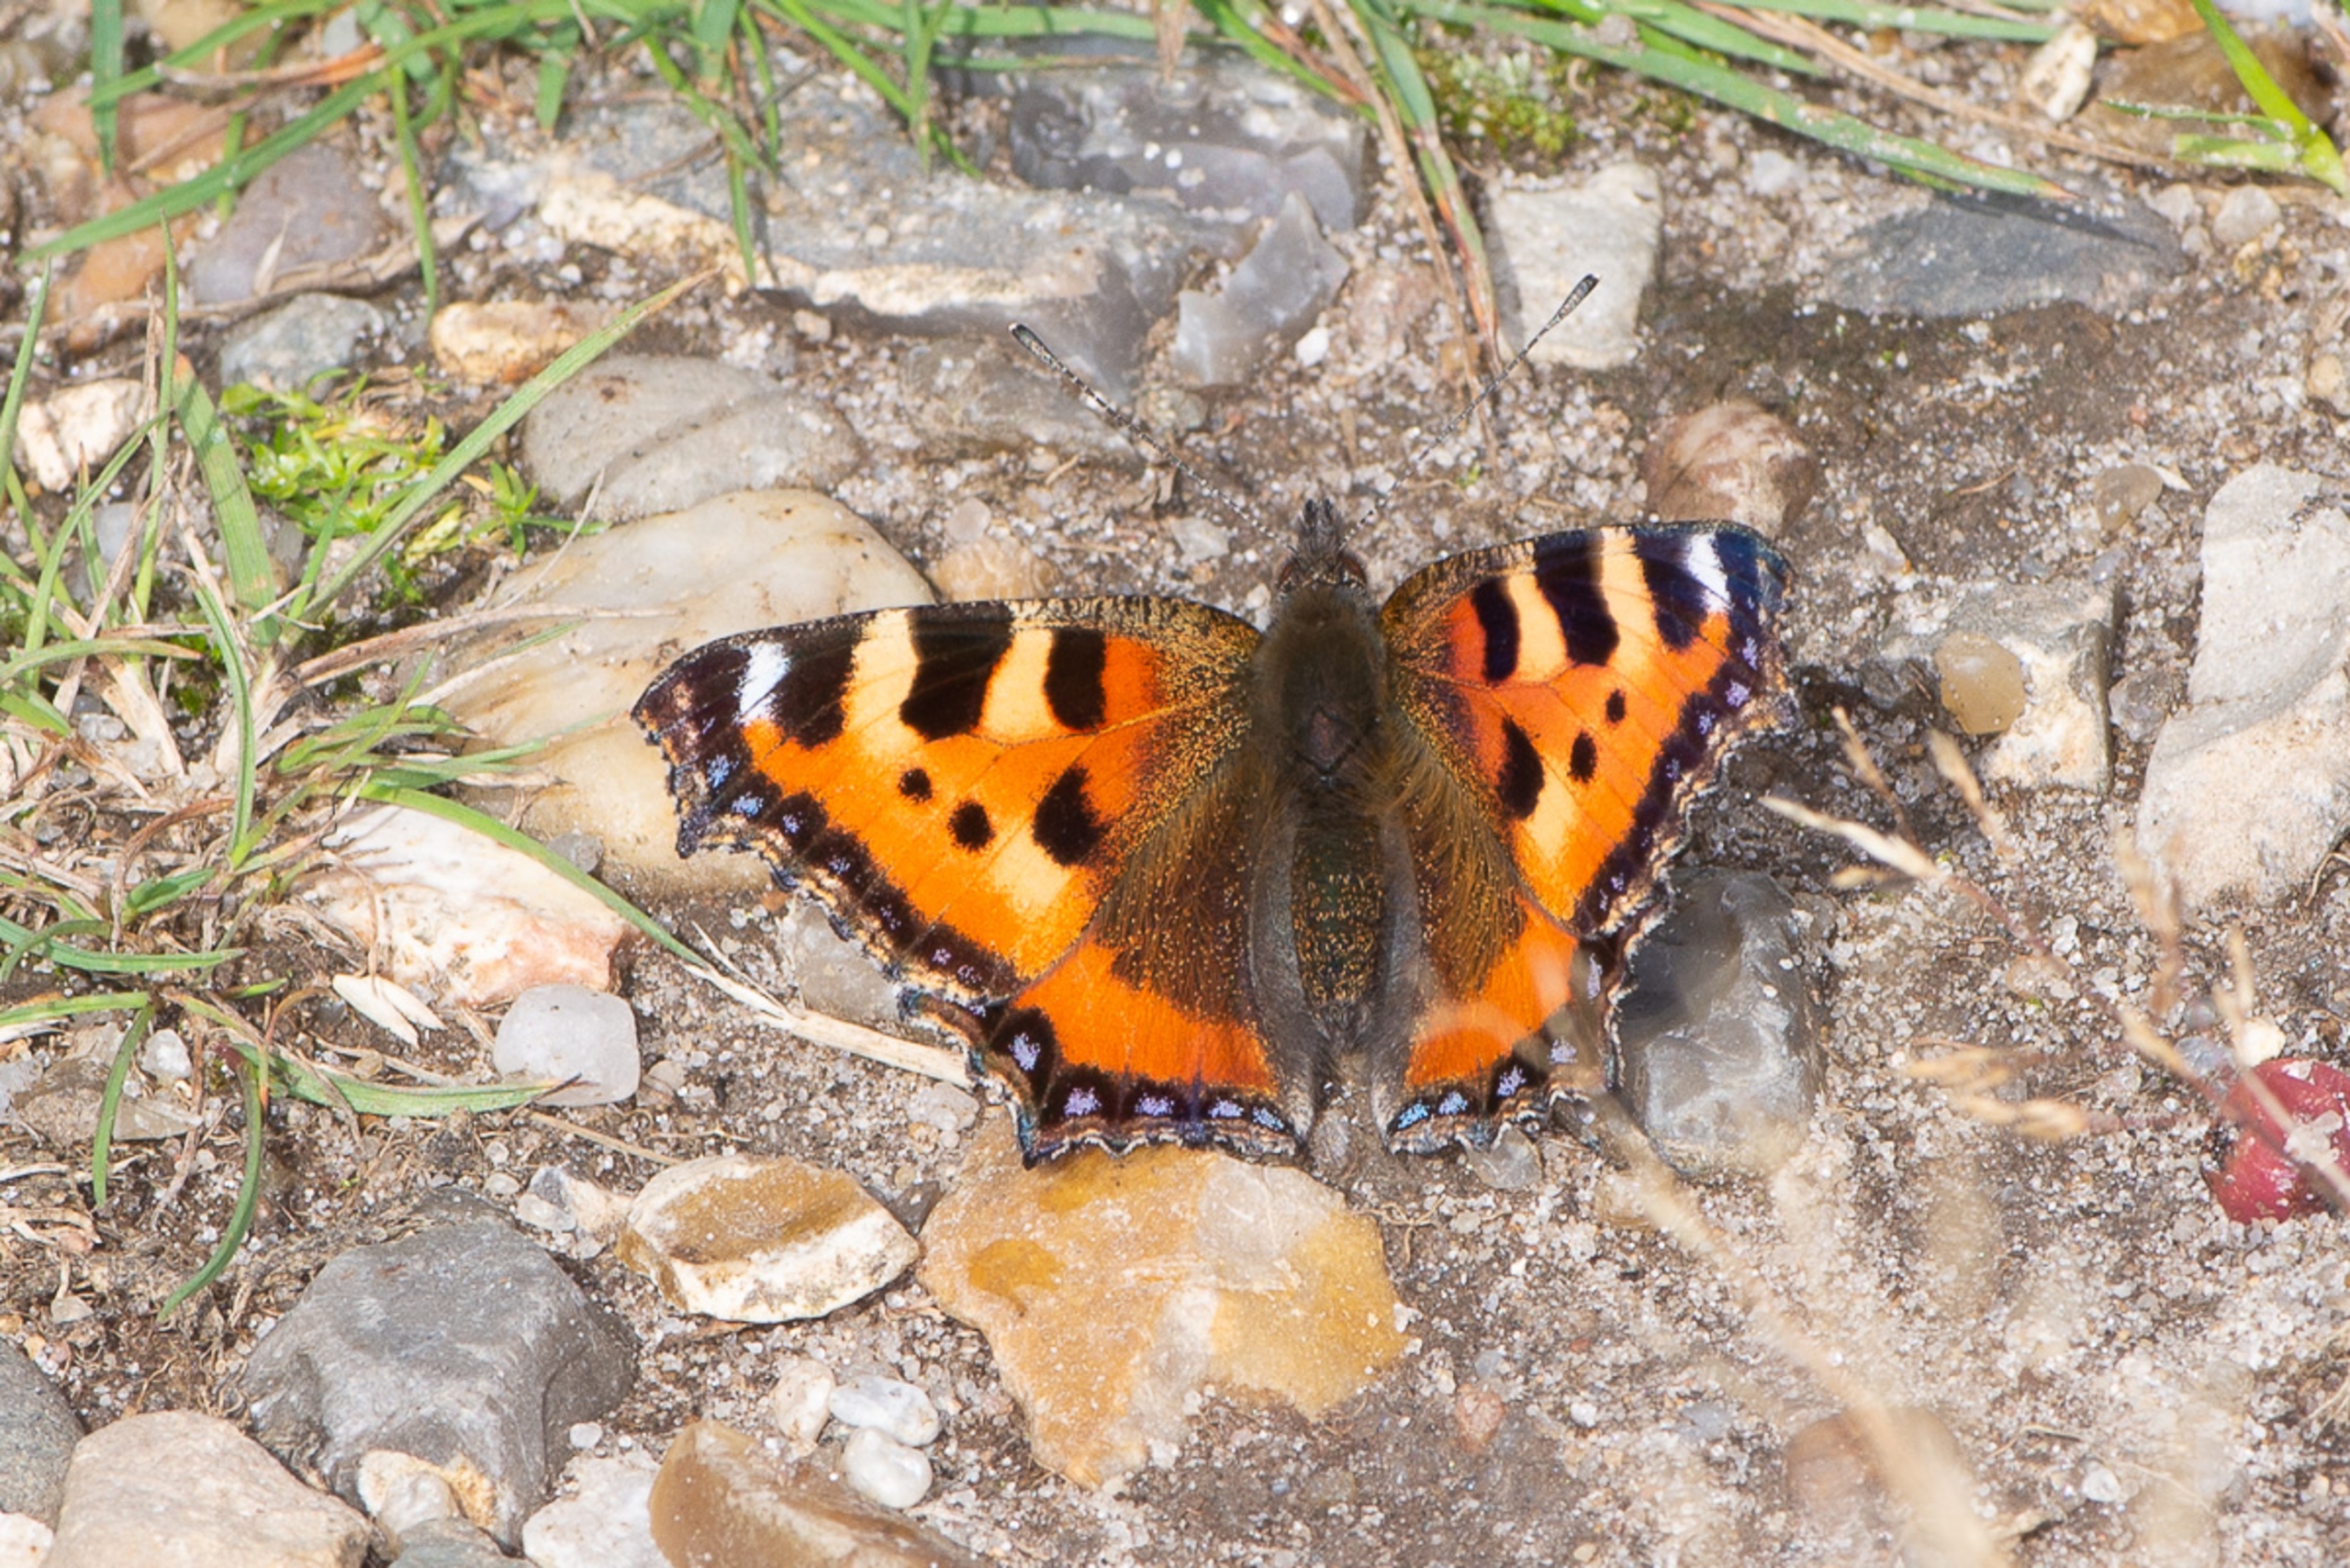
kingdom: Animalia
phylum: Arthropoda
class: Insecta
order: Lepidoptera
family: Nymphalidae
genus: Aglais
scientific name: Aglais urticae
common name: Nældens takvinge
